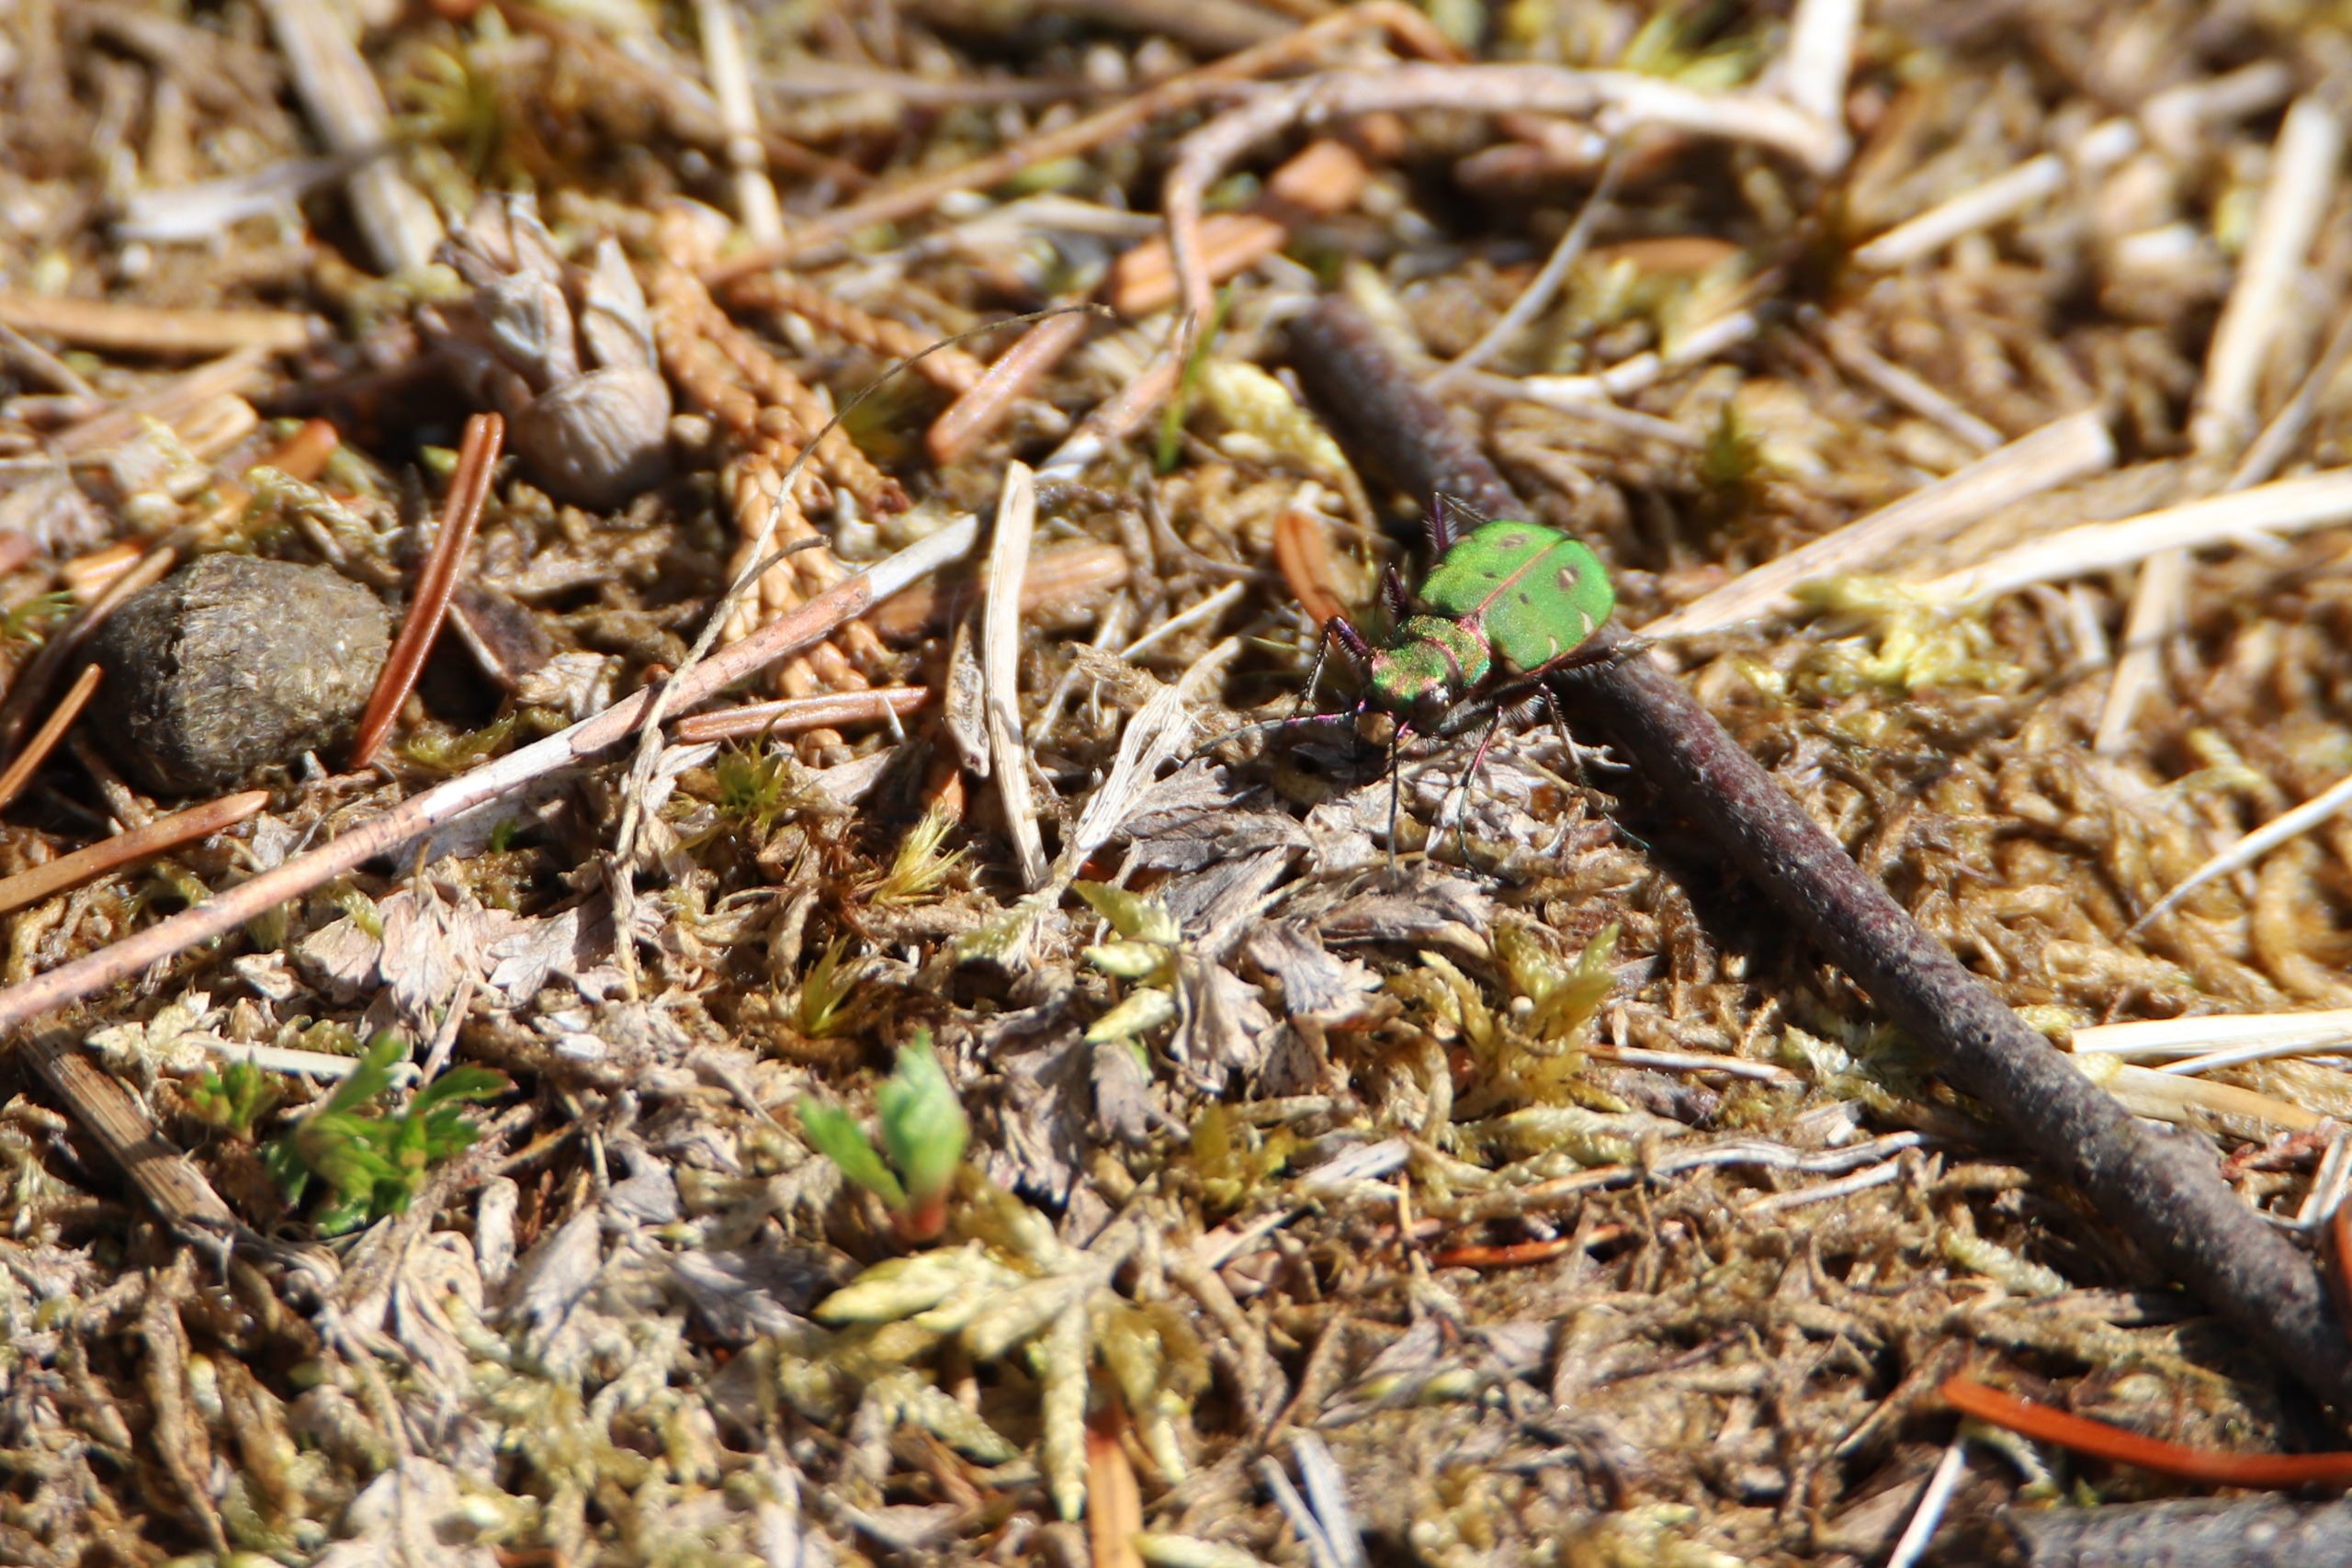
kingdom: Animalia
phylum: Arthropoda
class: Insecta
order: Coleoptera
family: Carabidae
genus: Cicindela
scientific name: Cicindela campestris
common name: Grøn sandspringer
